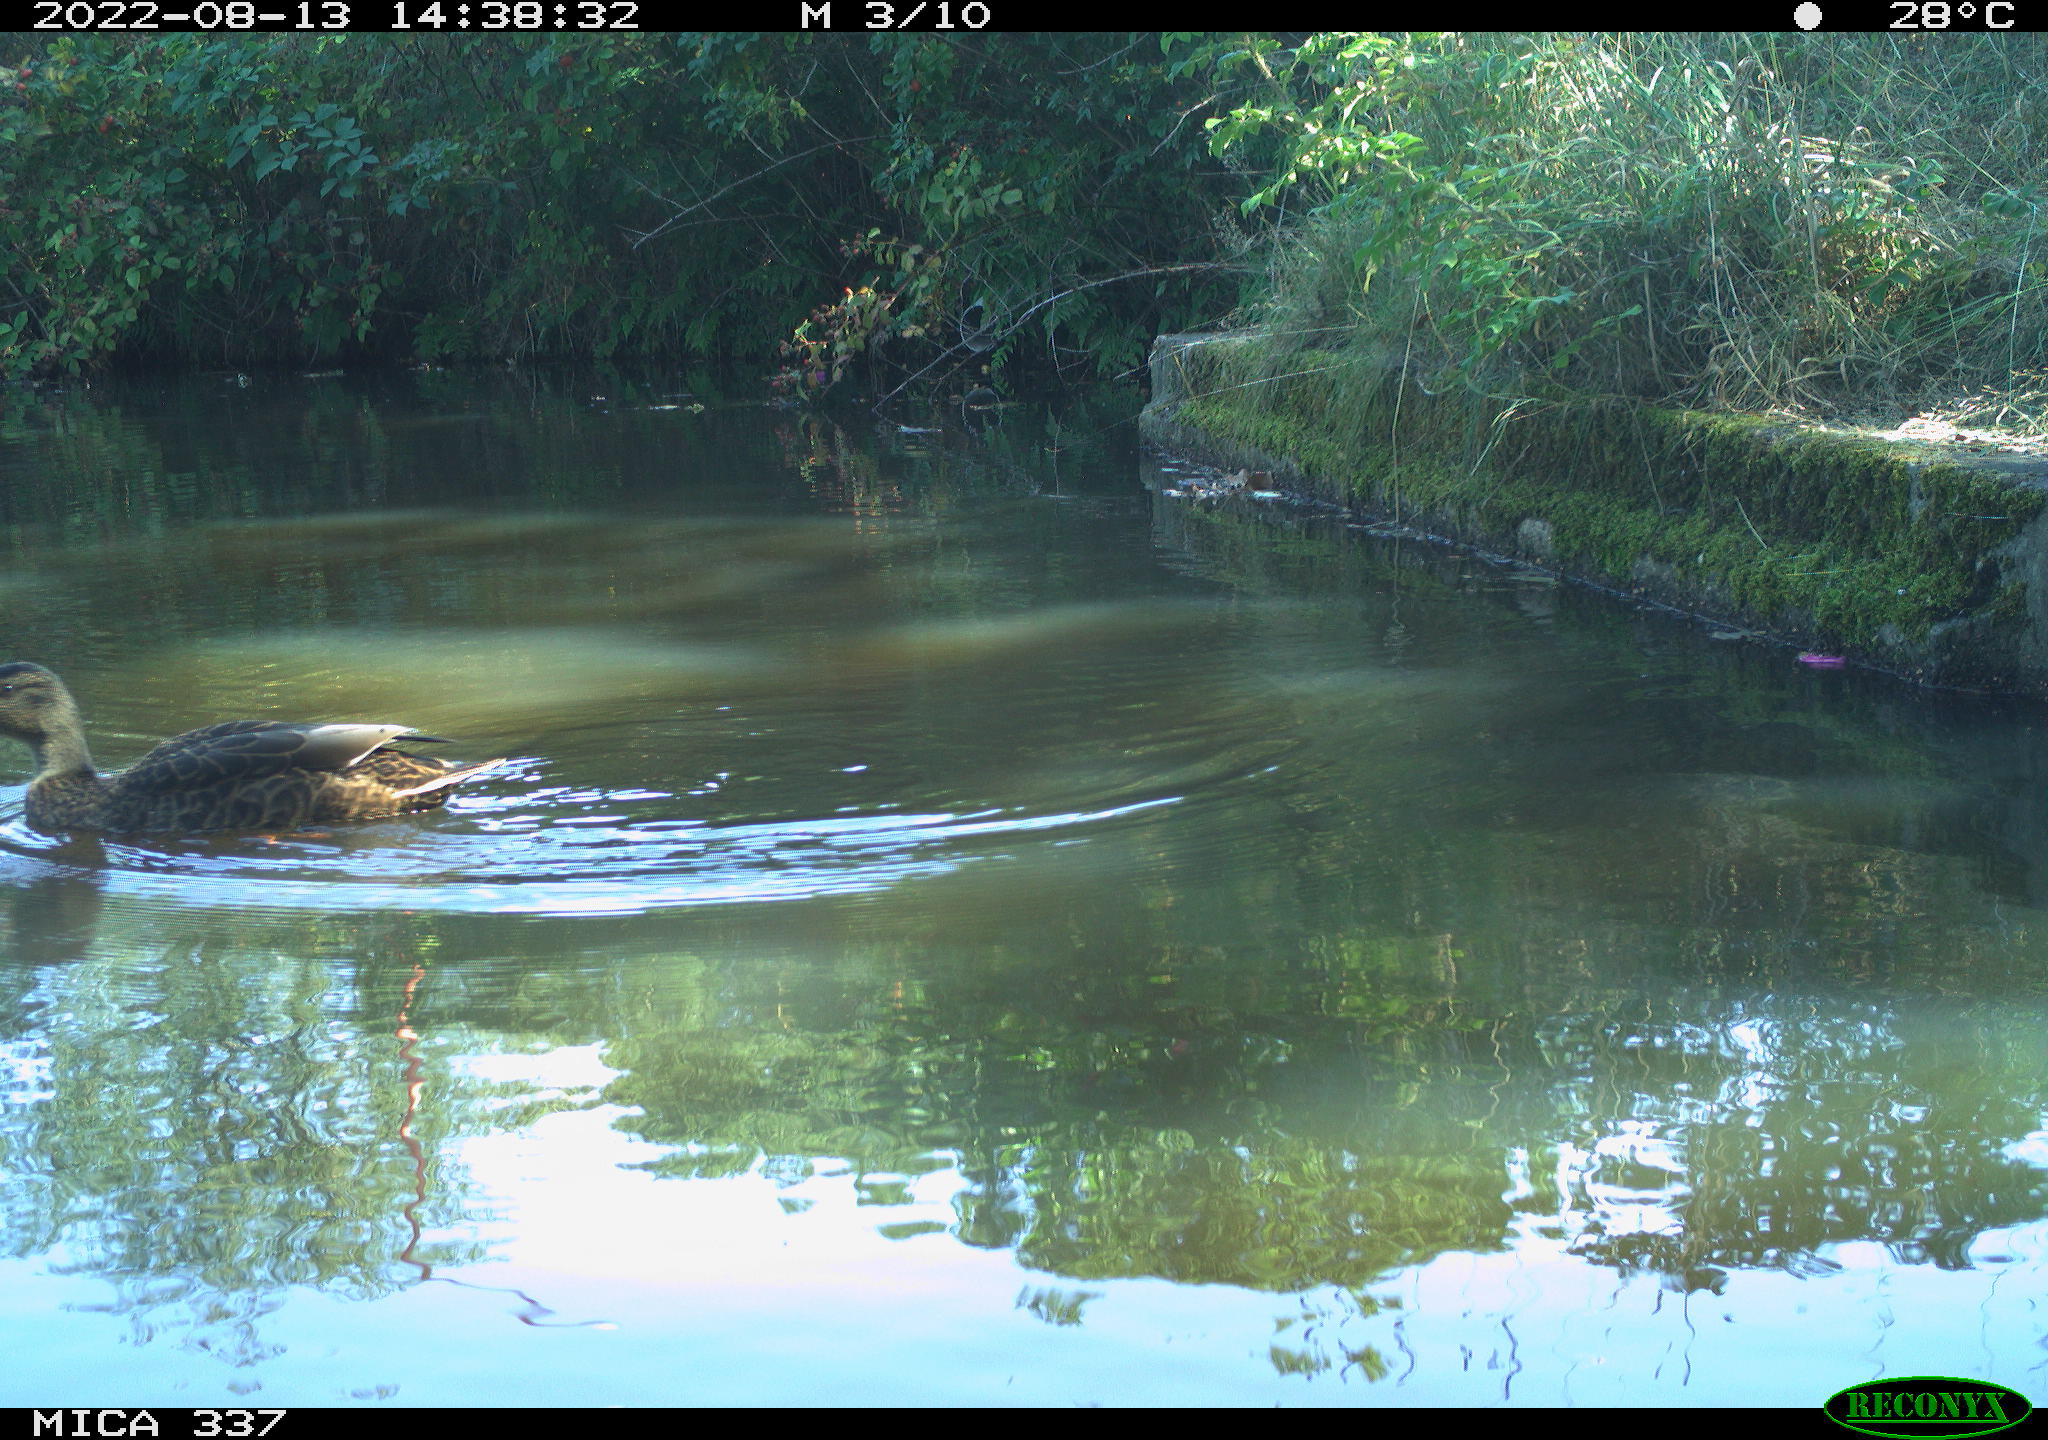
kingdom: Animalia
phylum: Chordata
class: Aves
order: Anseriformes
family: Anatidae
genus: Anas
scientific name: Anas platyrhynchos
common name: Mallard
